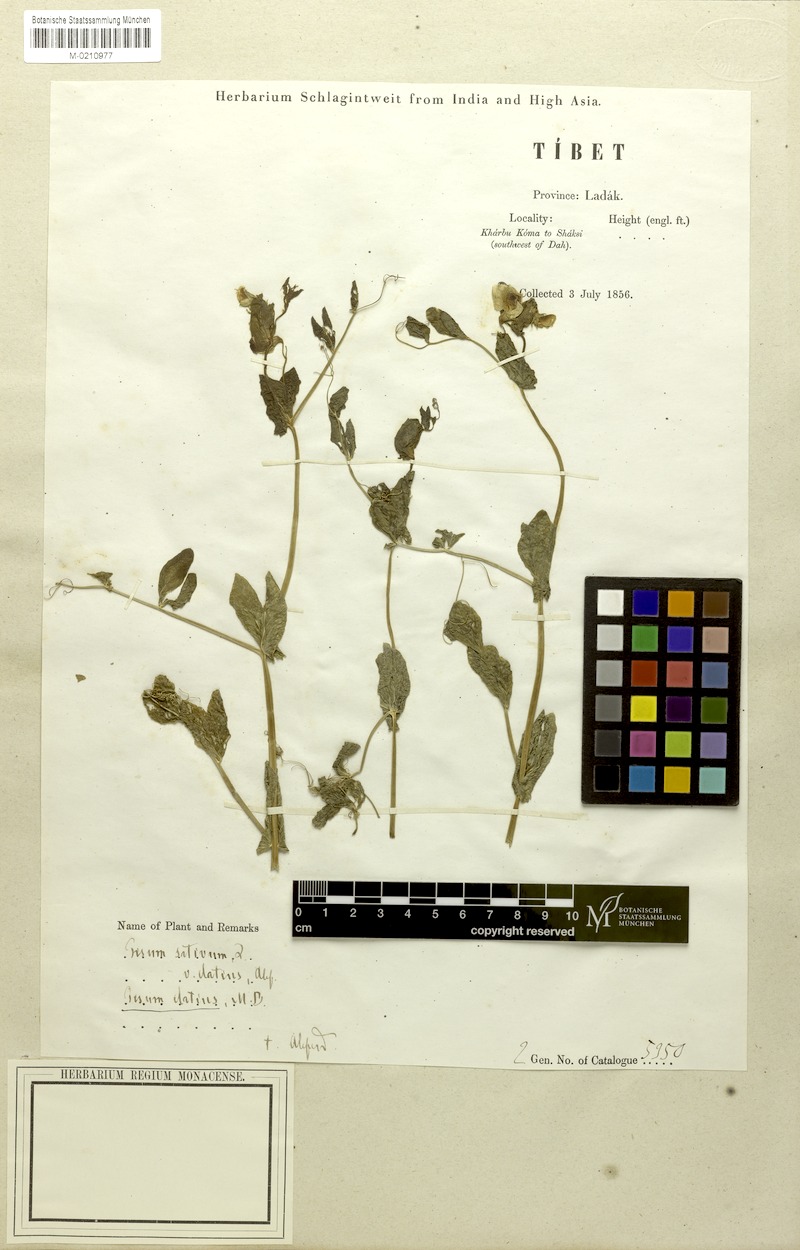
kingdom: Plantae
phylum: Tracheophyta
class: Magnoliopsida
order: Fabales
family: Fabaceae
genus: Lathyrus
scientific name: Lathyrus oleraceus
